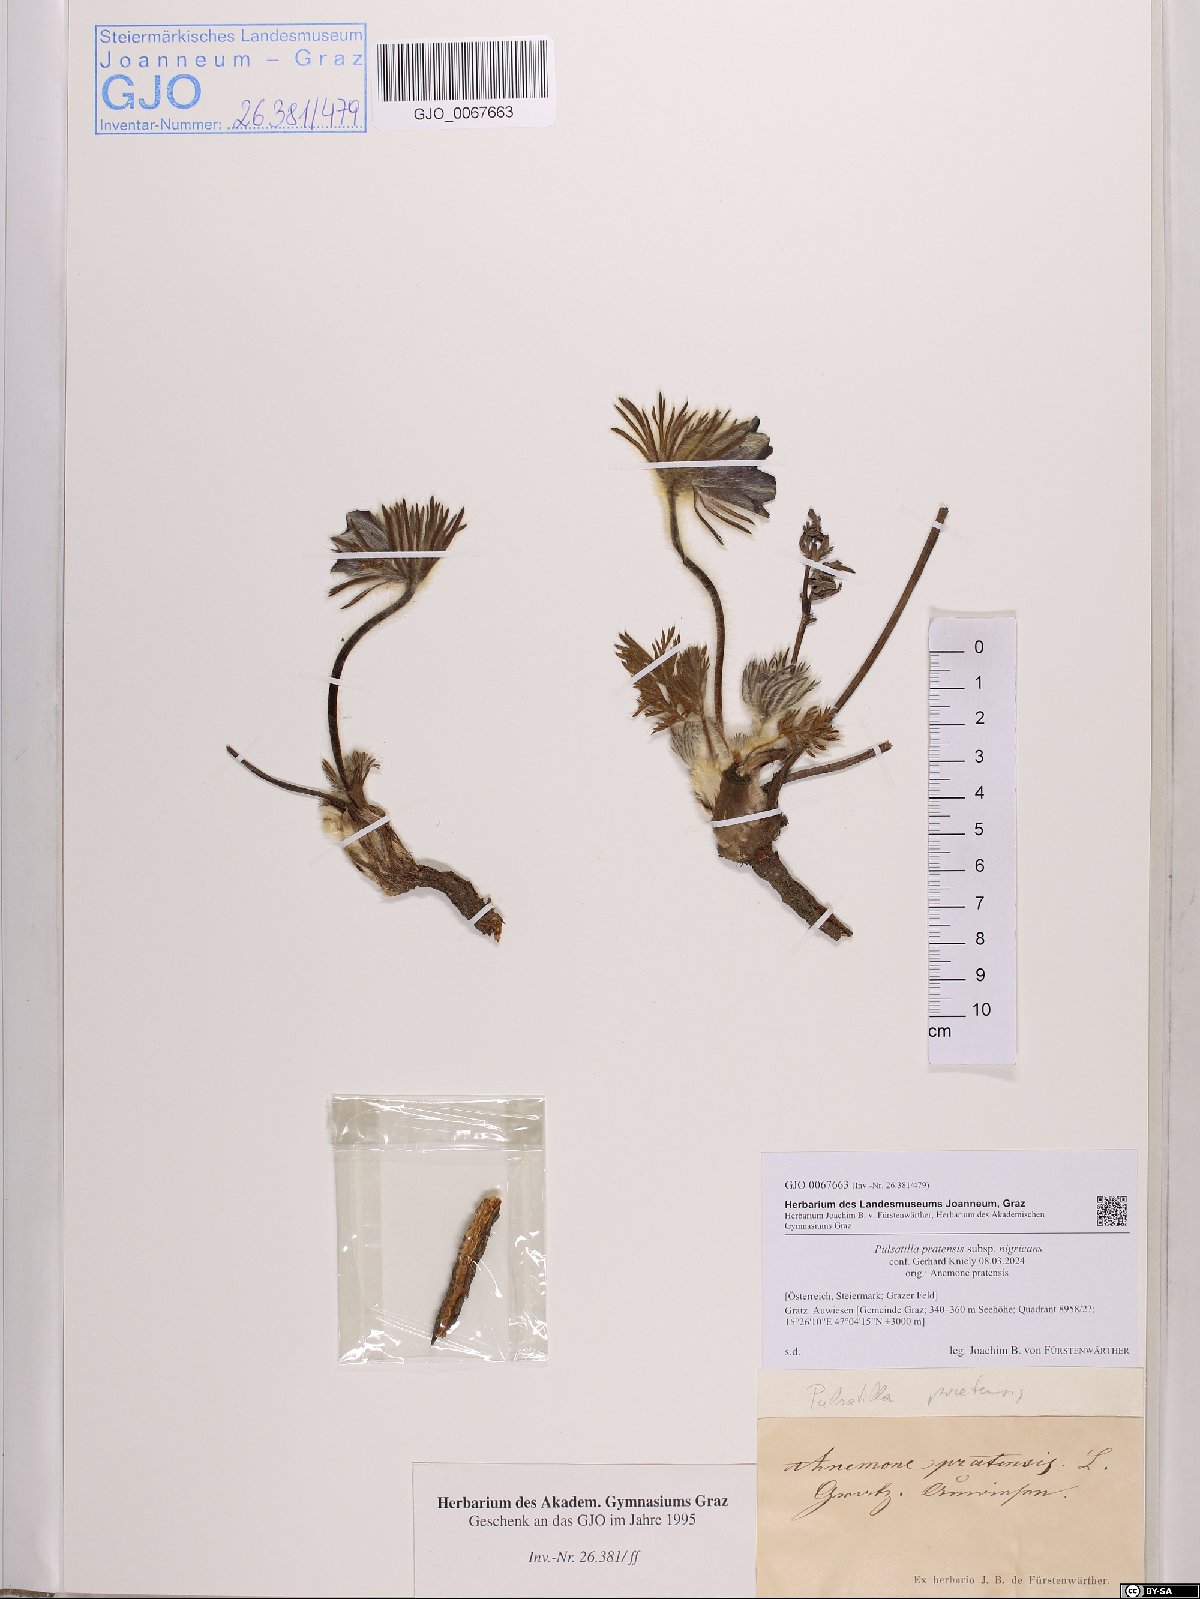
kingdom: Plantae
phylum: Tracheophyta
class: Magnoliopsida
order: Ranunculales
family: Ranunculaceae
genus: Pulsatilla
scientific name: Pulsatilla pratensis
